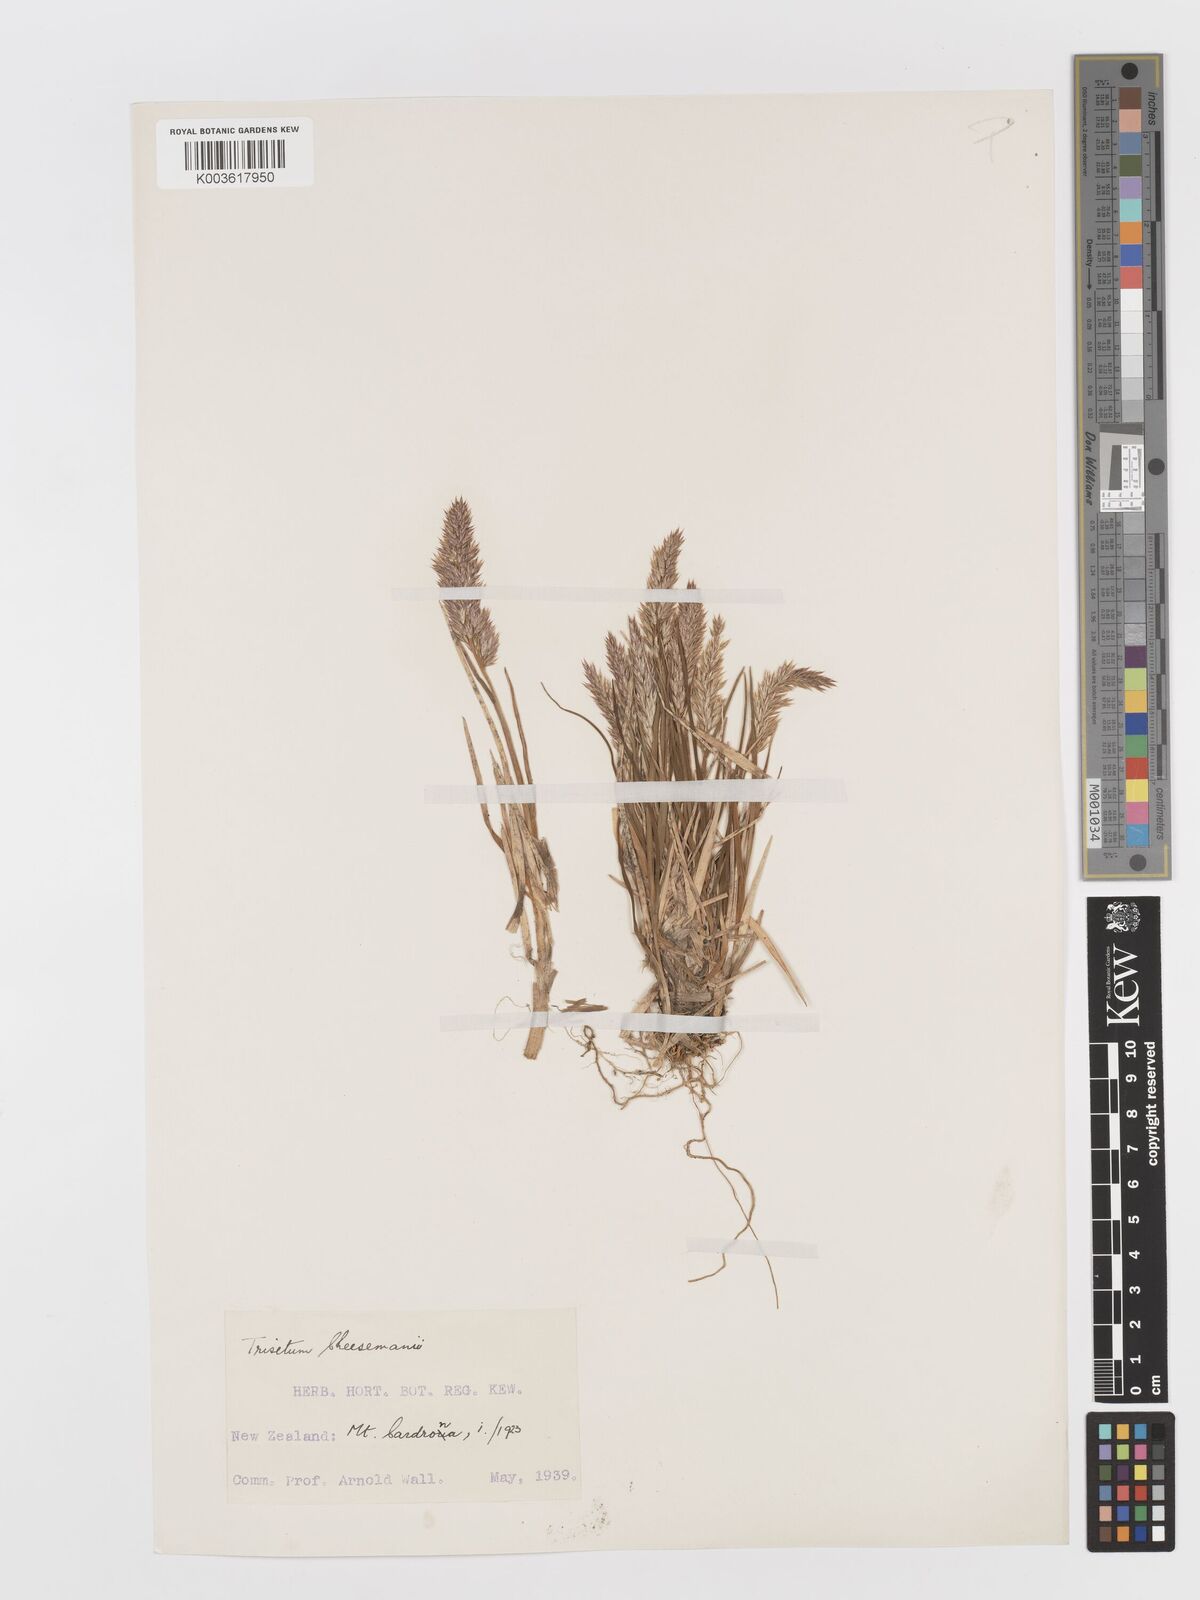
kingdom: Plantae
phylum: Tracheophyta
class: Liliopsida
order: Poales
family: Poaceae
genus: Koeleria
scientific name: Koeleria cheesemanii
